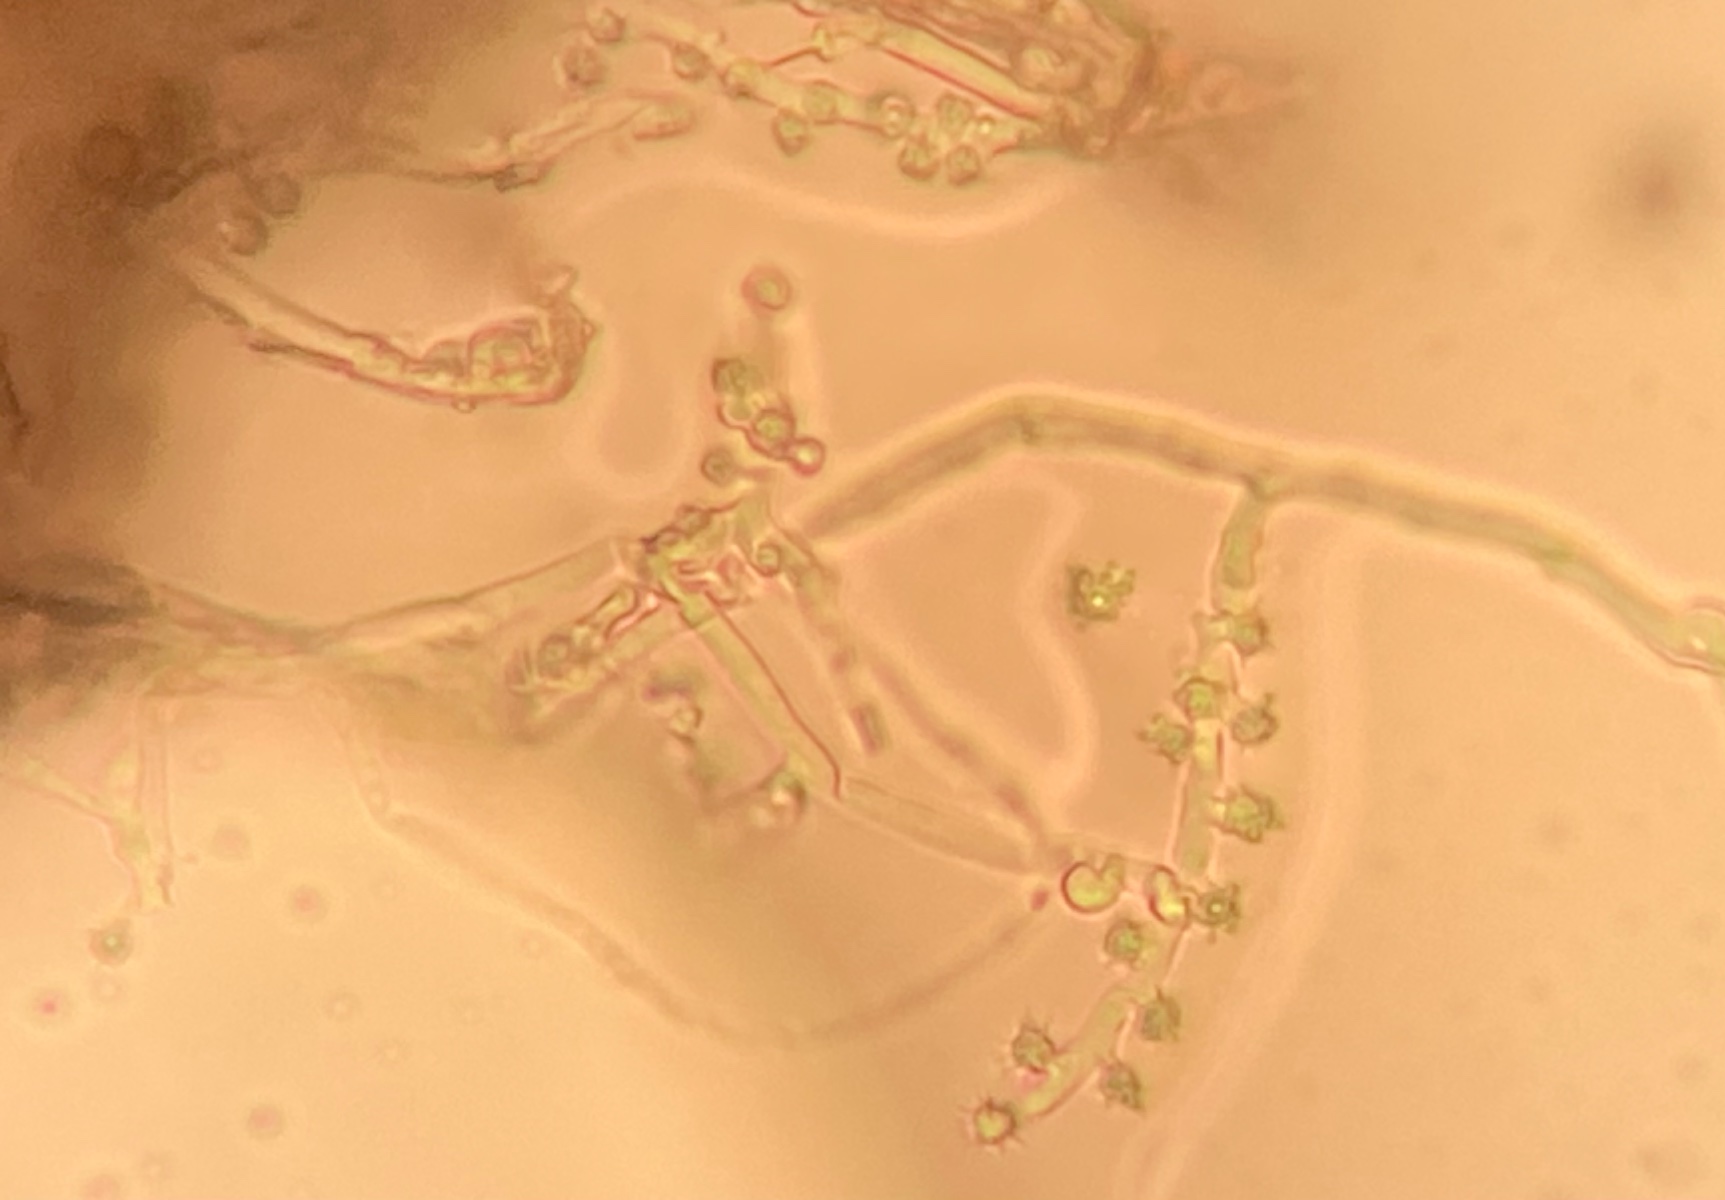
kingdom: Fungi
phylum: Basidiomycota
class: Agaricomycetes
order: Gomphales
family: Gomphaceae
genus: Phaeoclavulina
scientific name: Phaeoclavulina corrugata
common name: peber-koralsvamp
